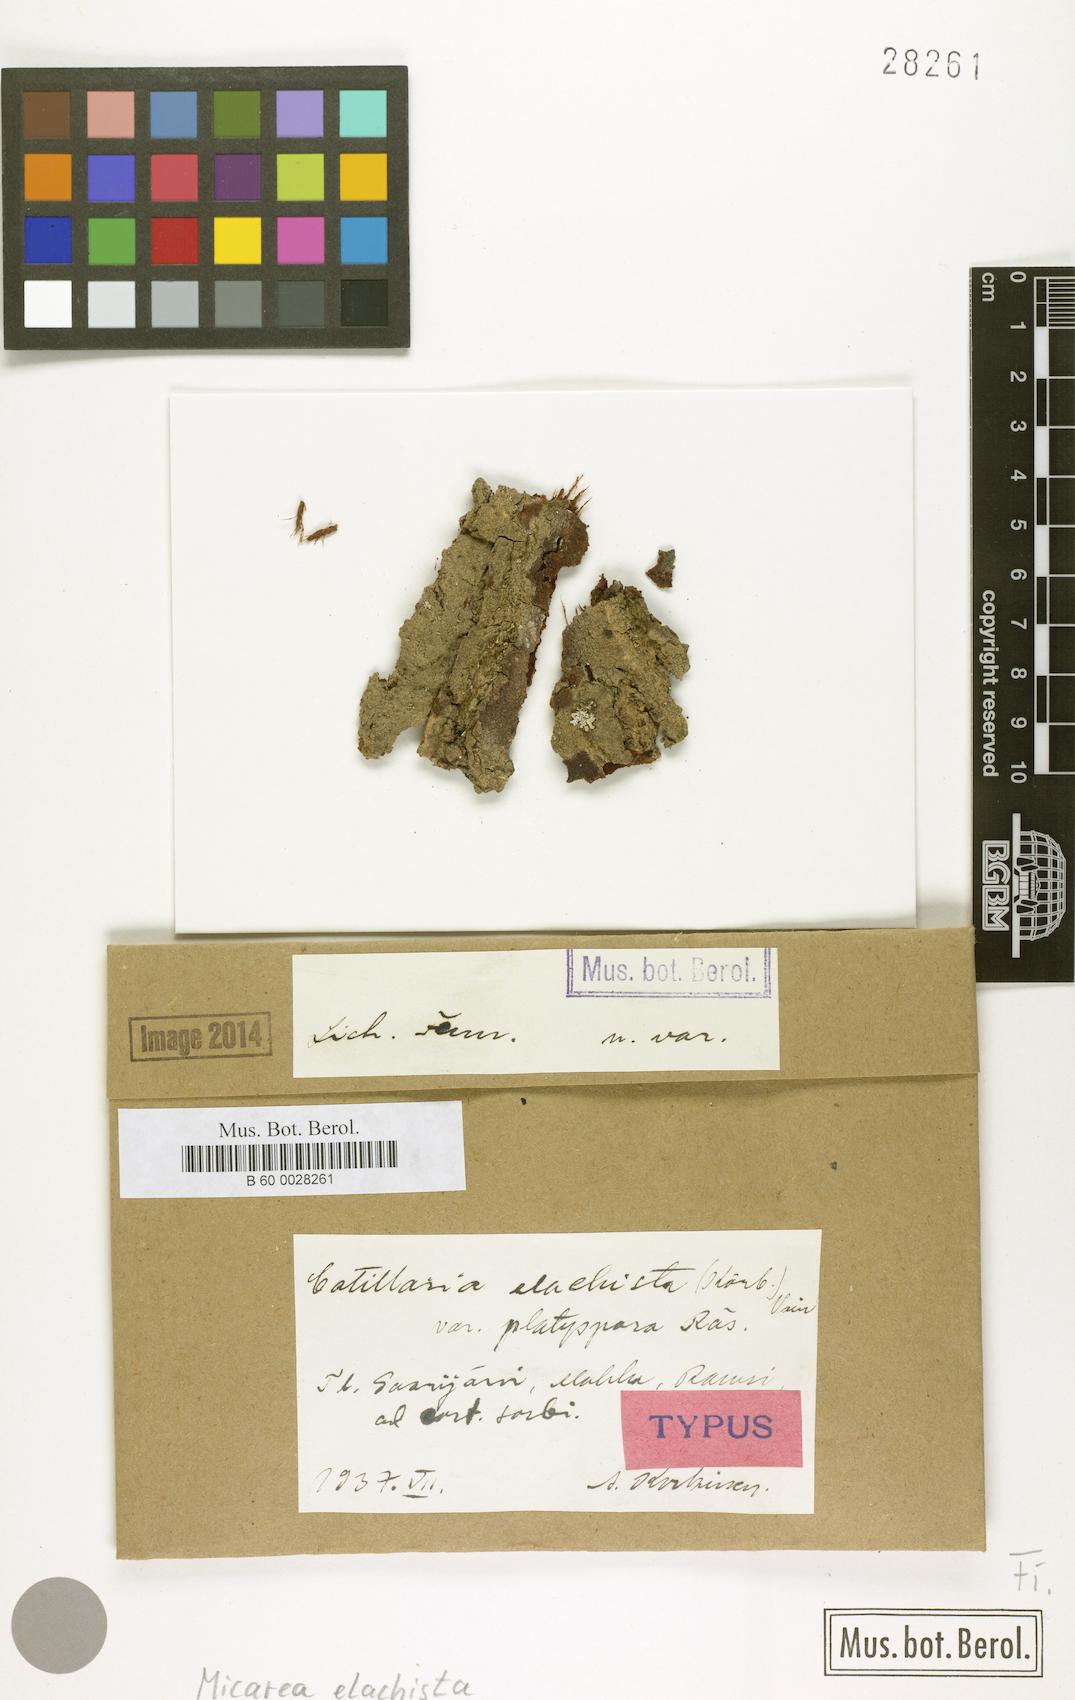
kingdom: Fungi
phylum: Ascomycota
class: Lecanoromycetes
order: Lecanorales
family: Byssolomataceae
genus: Micarea
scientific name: Micarea elachista
